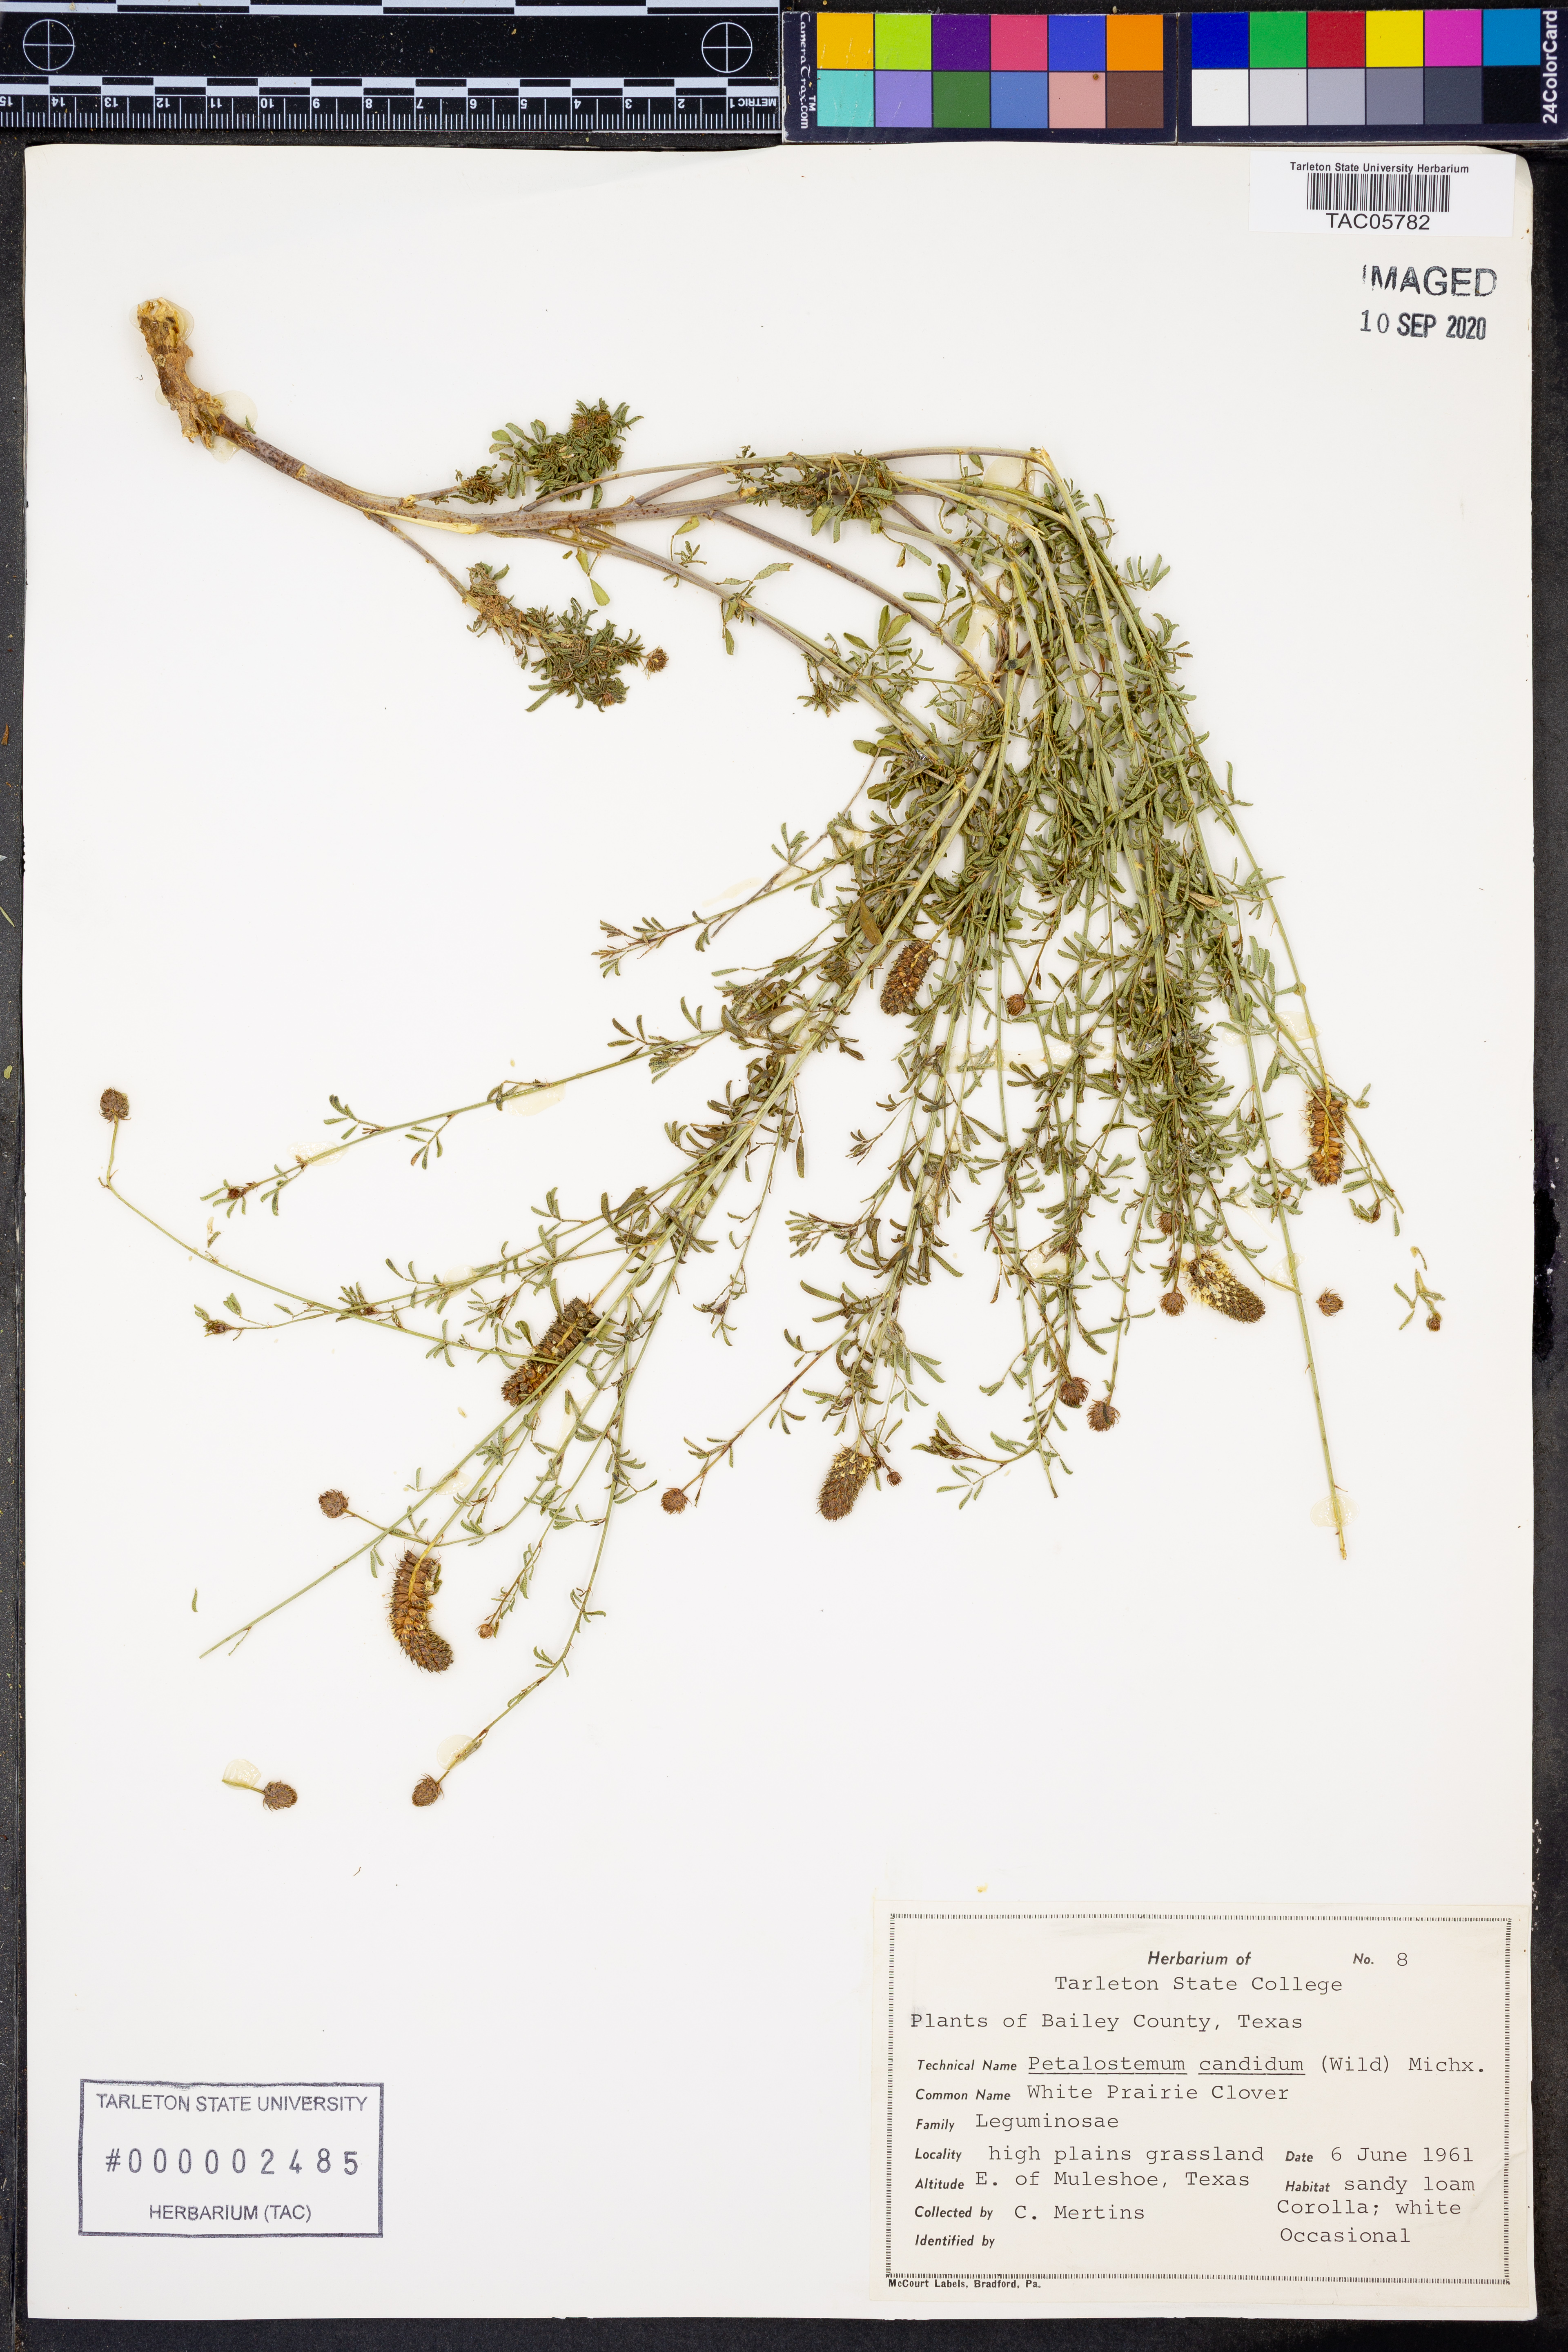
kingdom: Plantae
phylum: Tracheophyta
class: Magnoliopsida
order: Fabales
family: Fabaceae
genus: Dalea
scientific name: Dalea candida
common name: White prairie-clover
